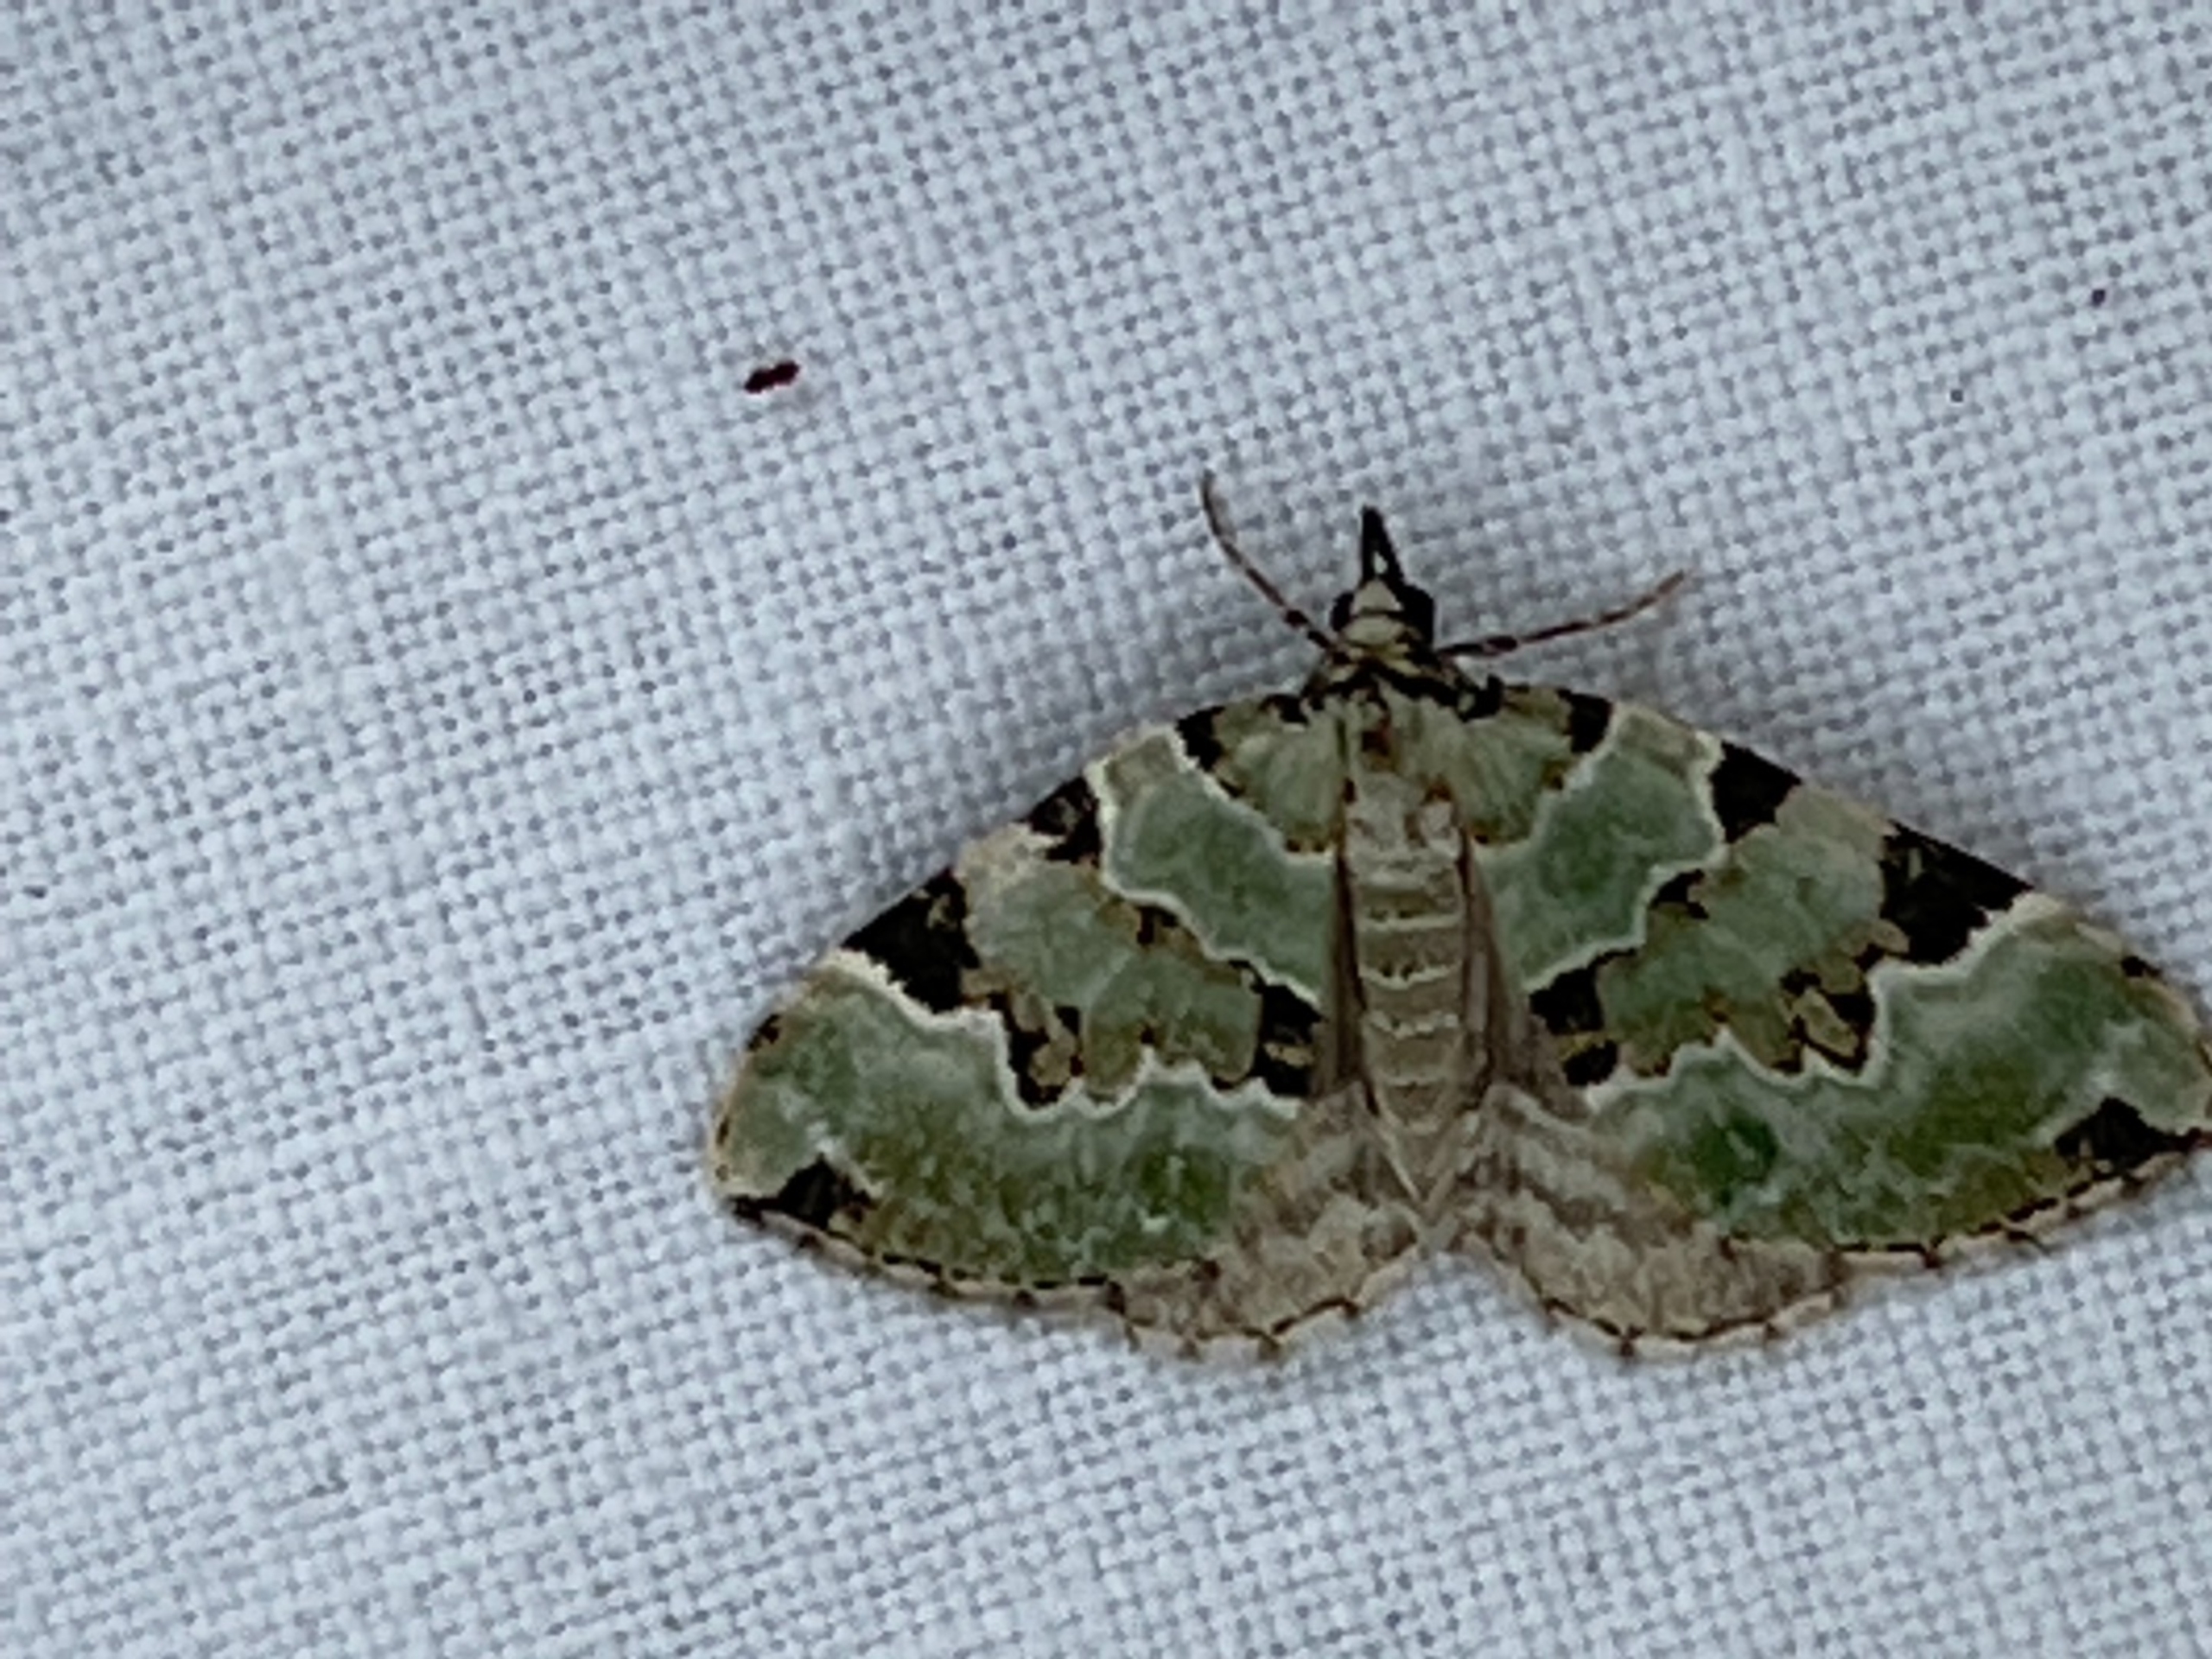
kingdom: Animalia
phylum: Arthropoda
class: Insecta
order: Lepidoptera
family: Geometridae
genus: Colostygia
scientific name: Colostygia pectinataria
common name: Grøn bladmåler
